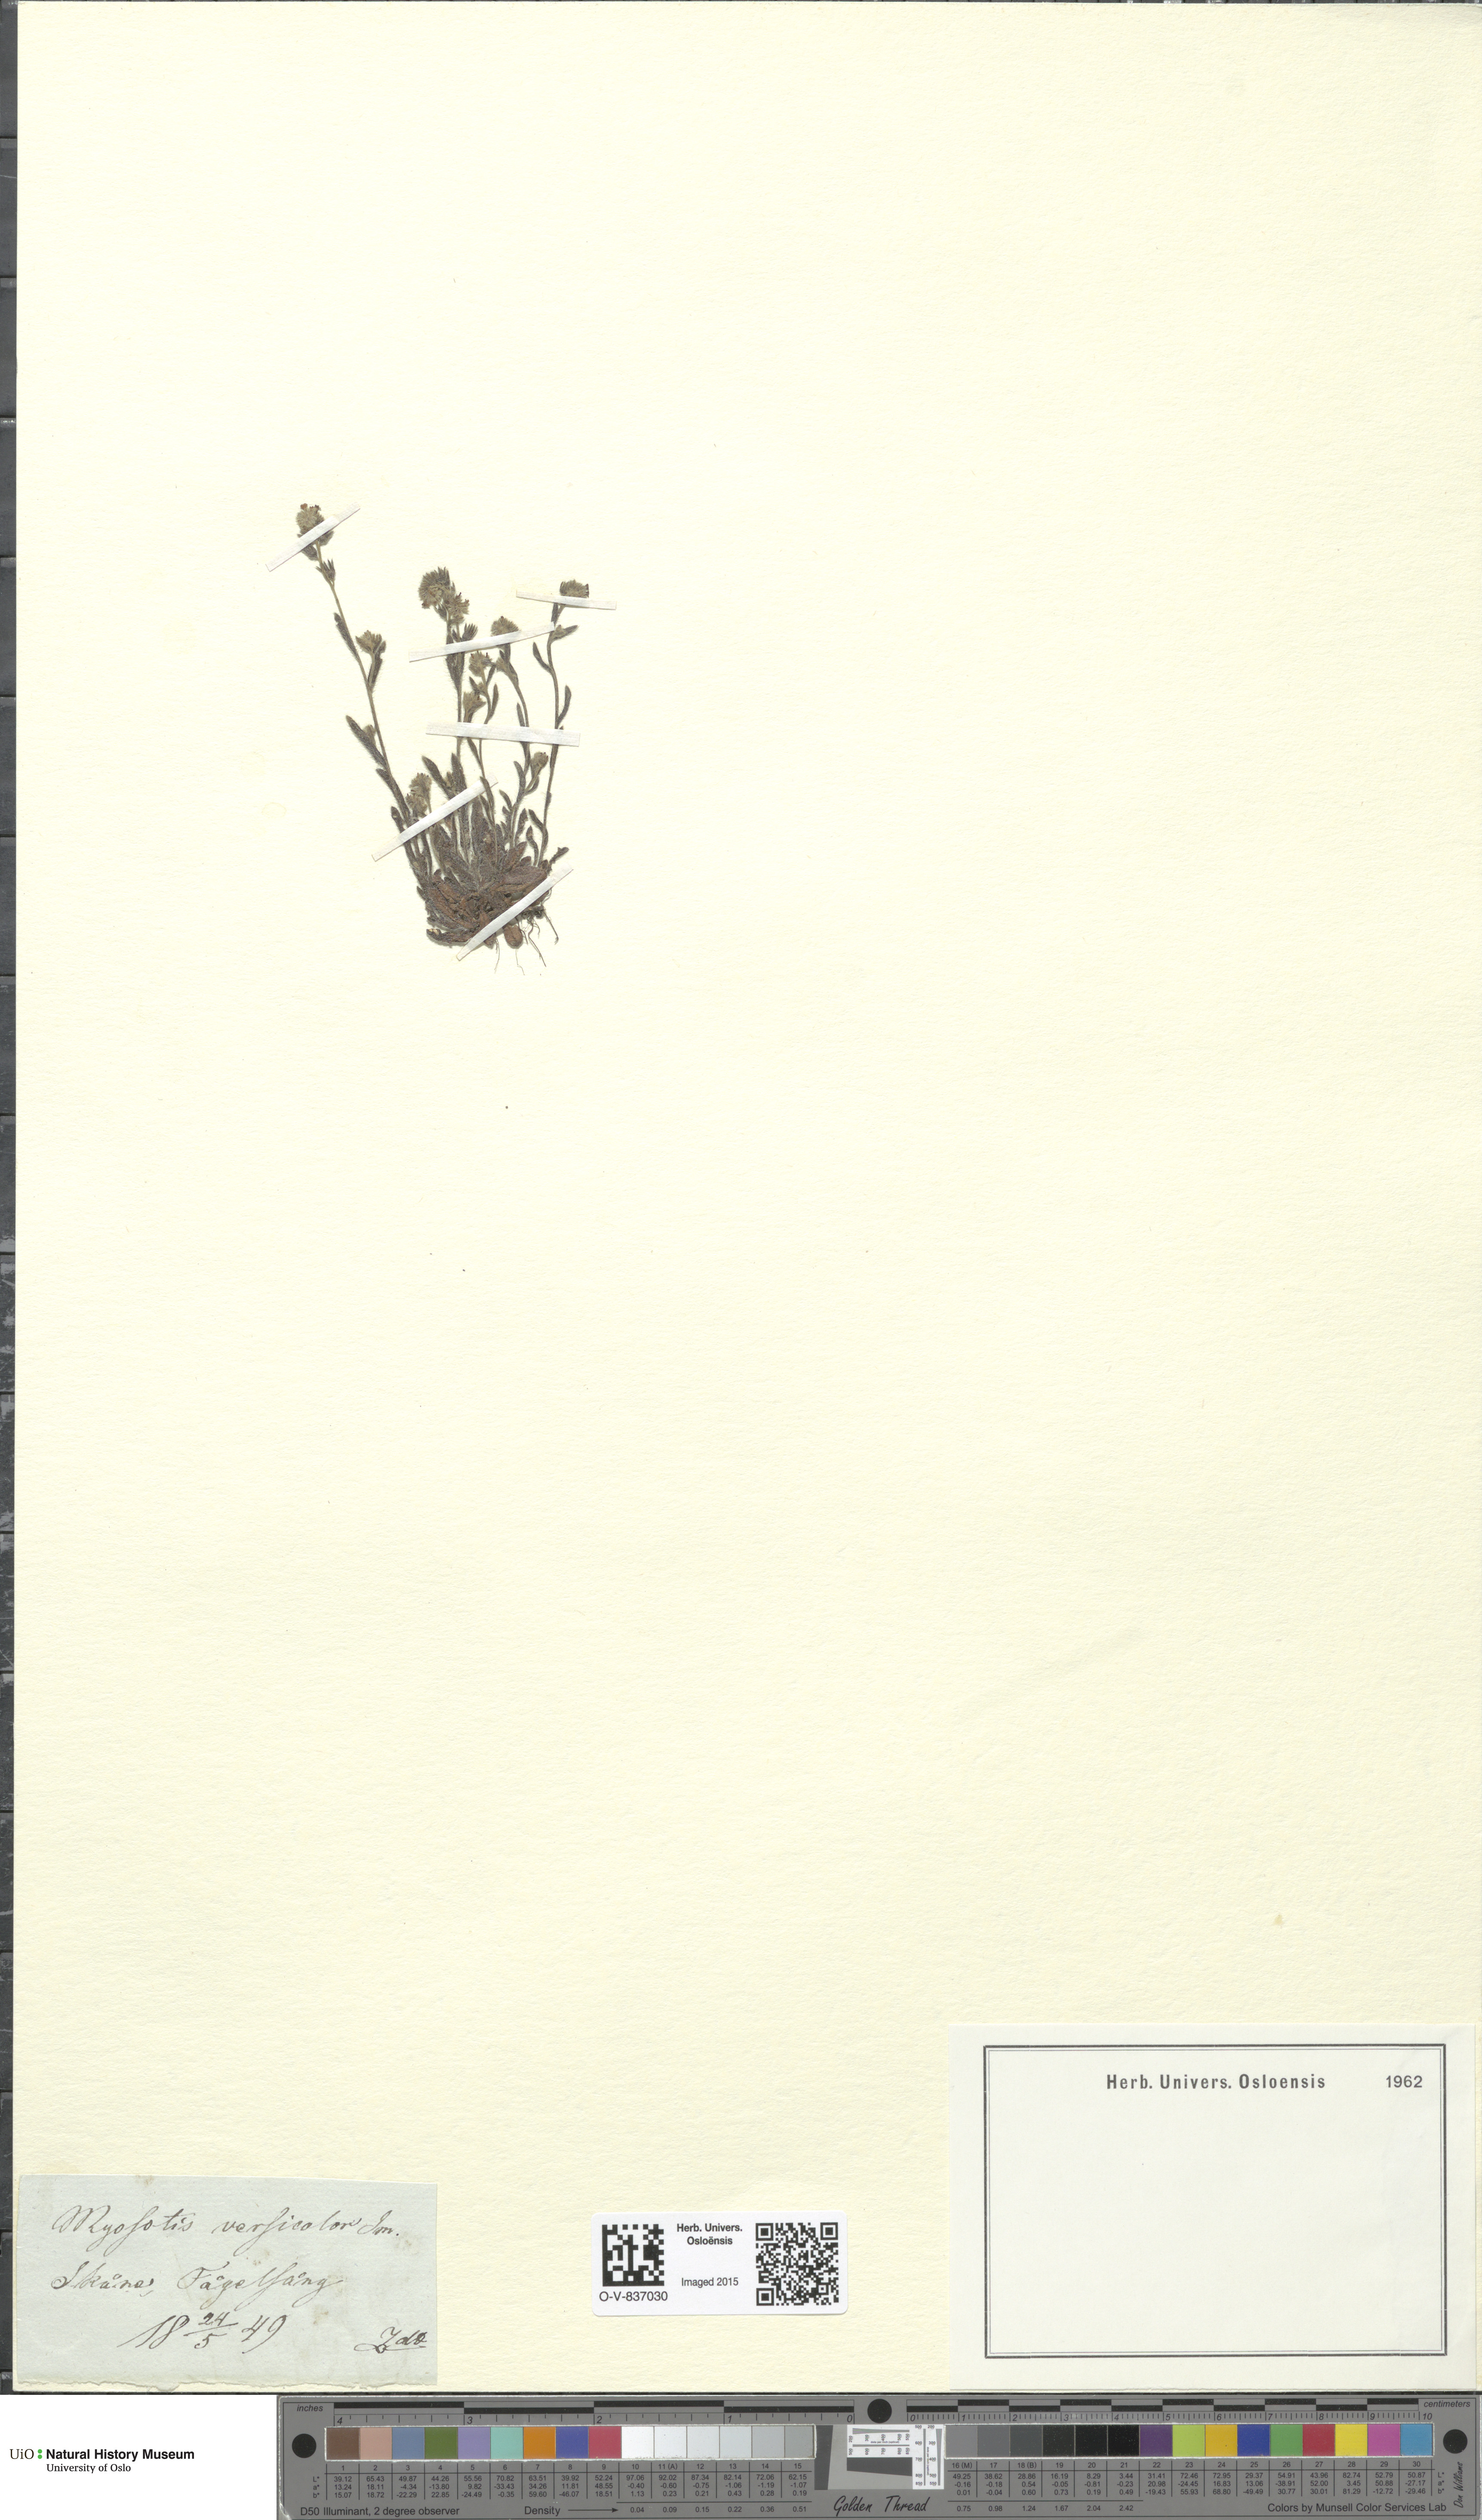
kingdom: Plantae
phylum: Tracheophyta
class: Magnoliopsida
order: Boraginales
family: Boraginaceae
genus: Myosotis
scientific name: Myosotis discolor
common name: Changing forget-me-not
